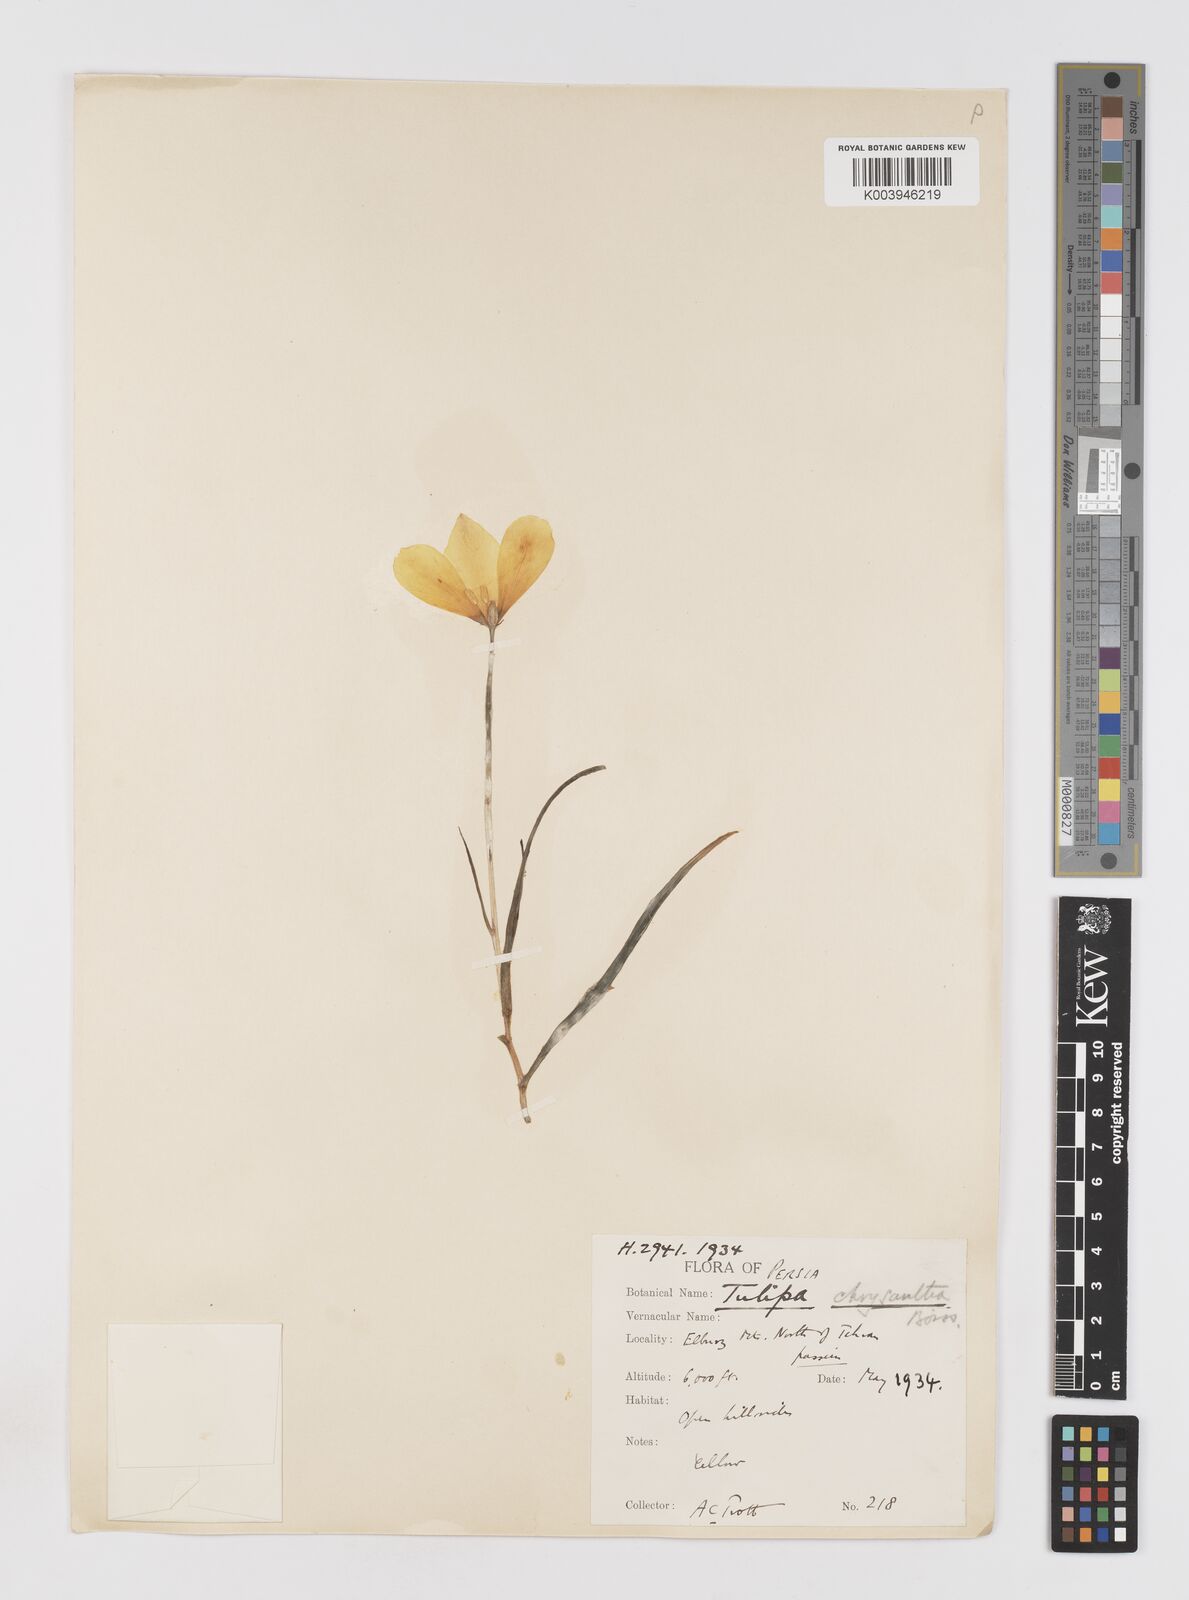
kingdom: Plantae
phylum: Tracheophyta
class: Liliopsida
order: Liliales
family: Liliaceae
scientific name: Liliaceae
